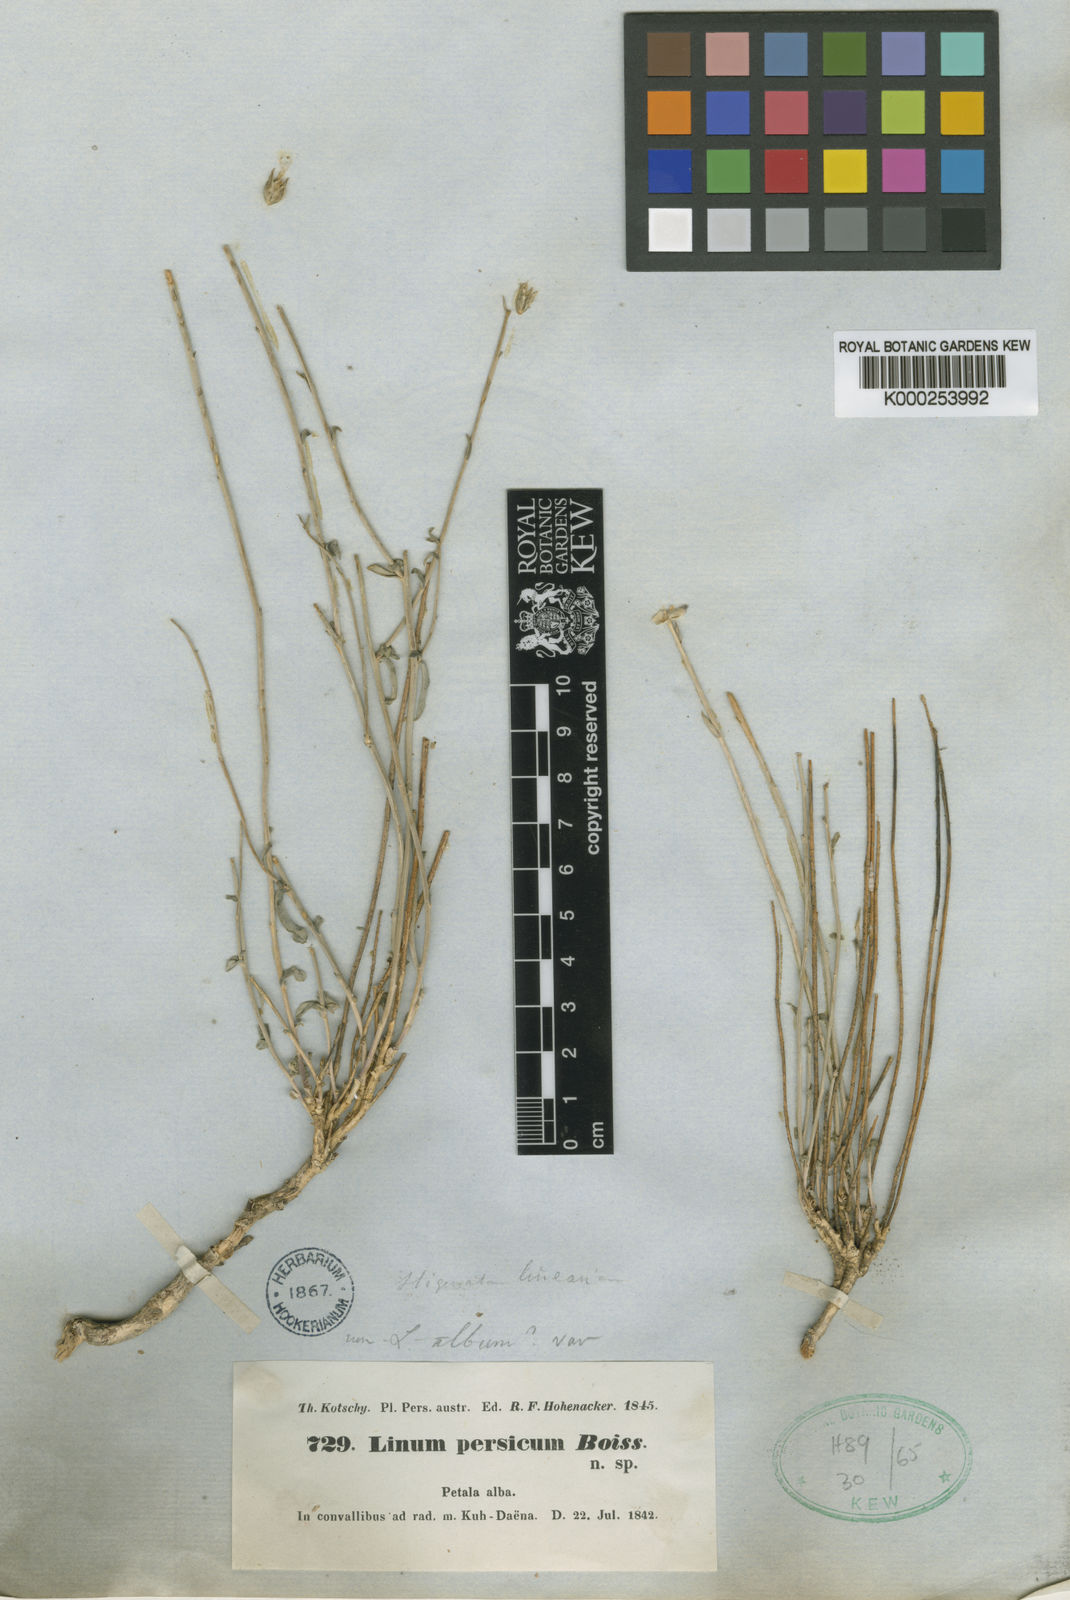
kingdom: Plantae
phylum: Tracheophyta
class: Magnoliopsida
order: Malpighiales
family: Linaceae
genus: Linum
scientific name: Linum persicum
